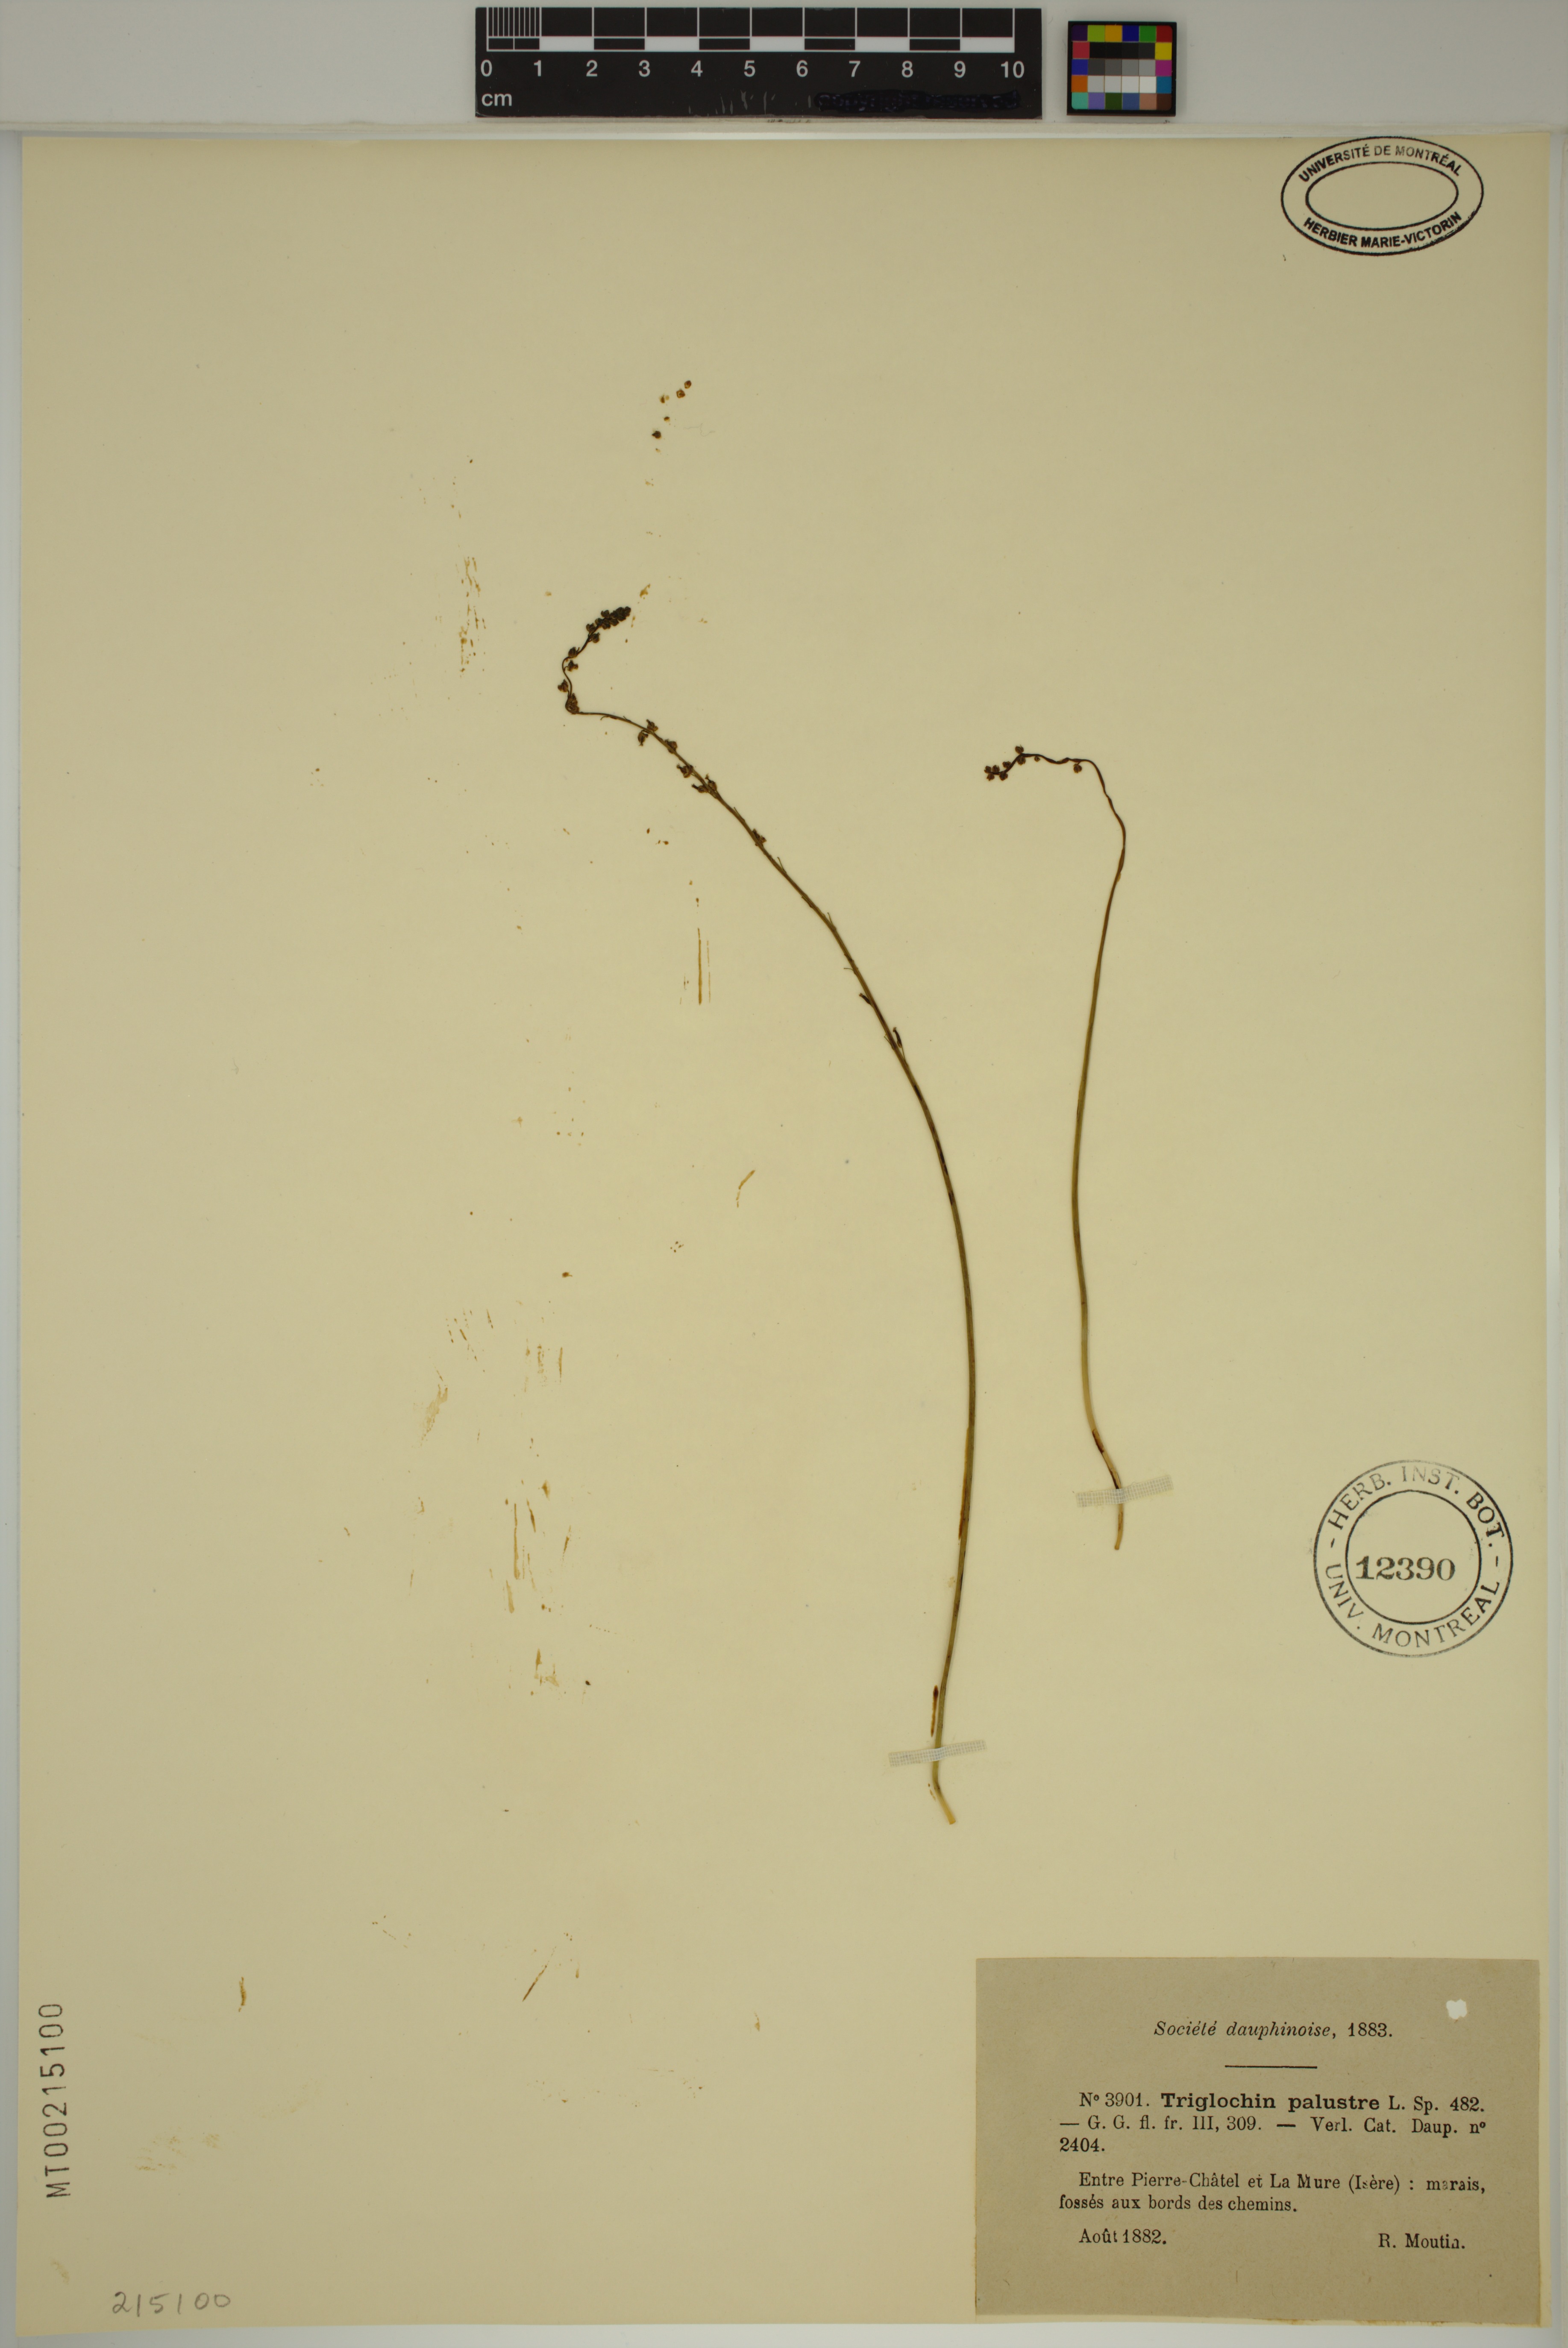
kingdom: Plantae
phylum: Tracheophyta
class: Liliopsida
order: Alismatales
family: Juncaginaceae
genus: Triglochin
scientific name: Triglochin palustris
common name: Marsh arrowgrass
